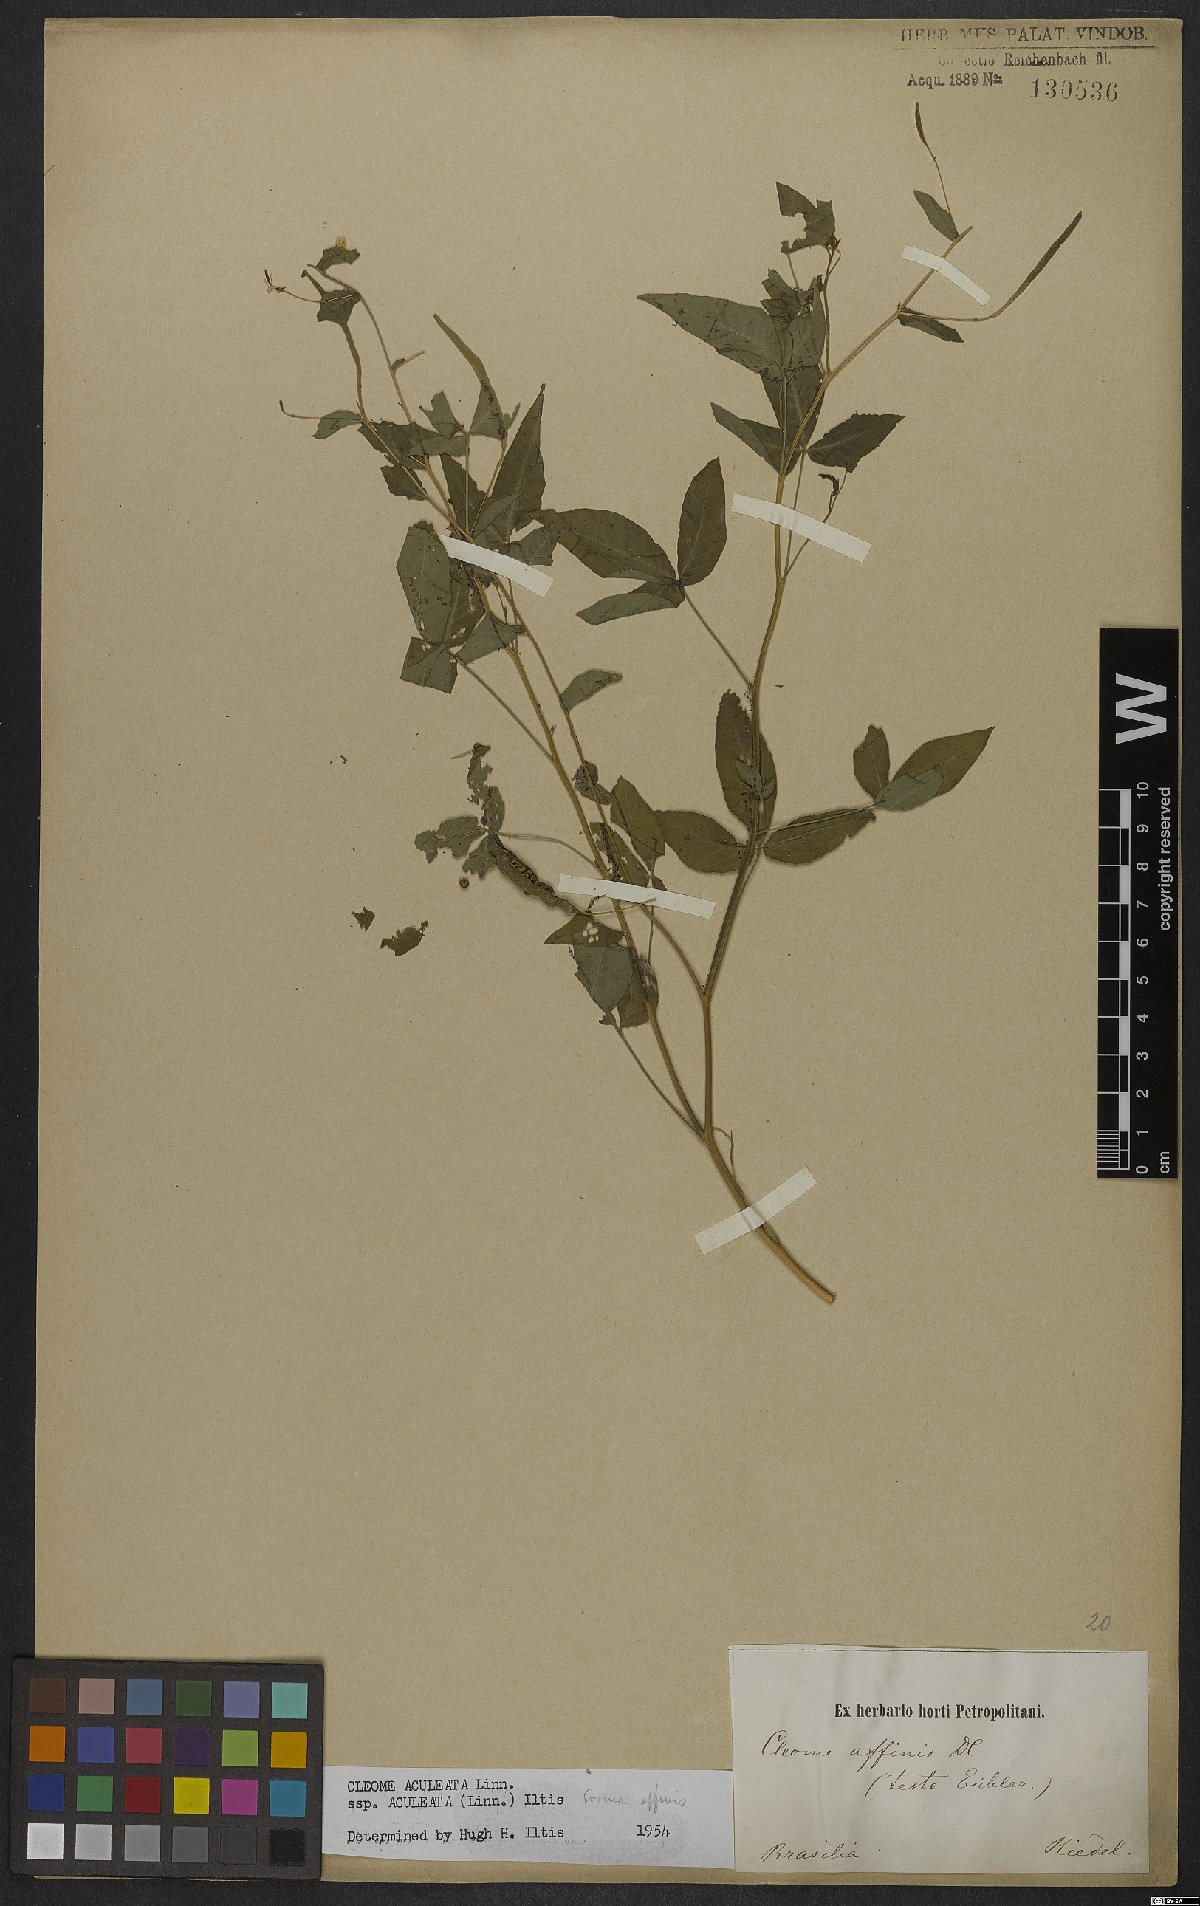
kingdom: Plantae
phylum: Tracheophyta
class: Magnoliopsida
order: Brassicales
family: Cleomaceae
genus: Tarenaya
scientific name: Tarenaya aculeata
